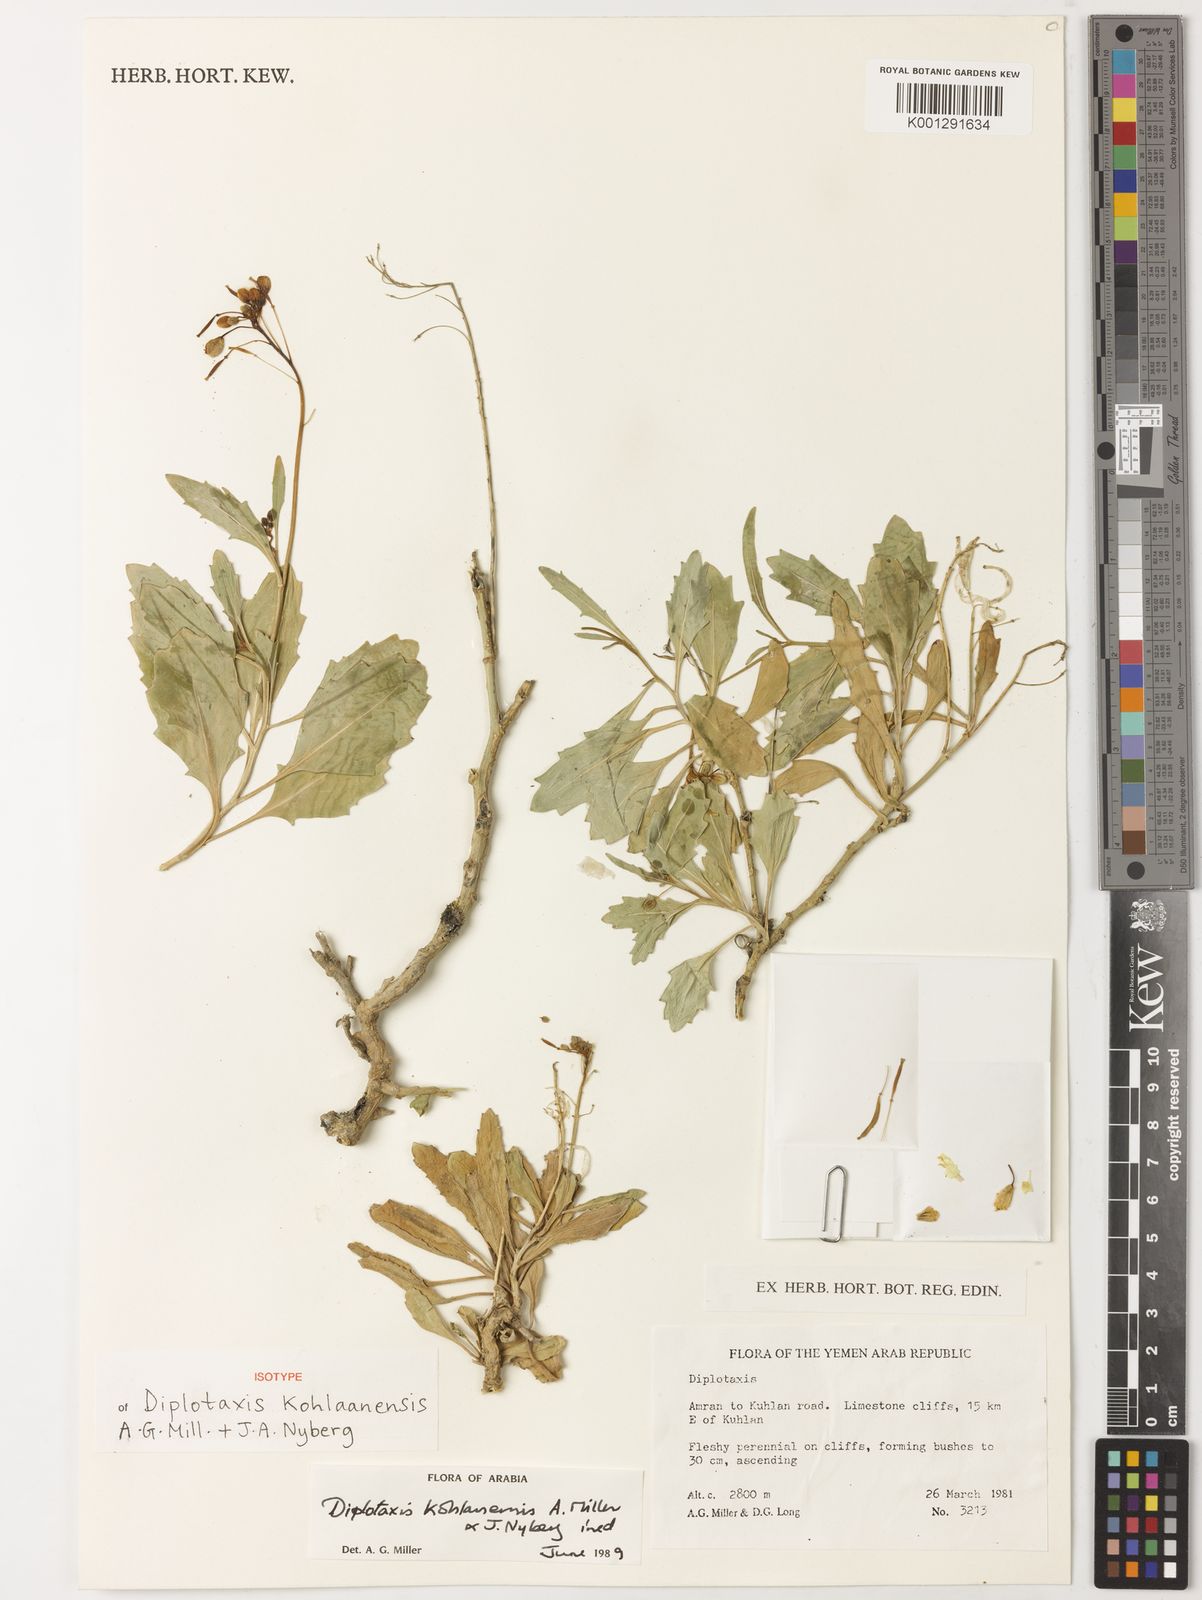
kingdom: Plantae
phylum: Tracheophyta
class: Magnoliopsida
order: Brassicales
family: Brassicaceae
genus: Diplotaxis
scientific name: Diplotaxis kohlaanensis
